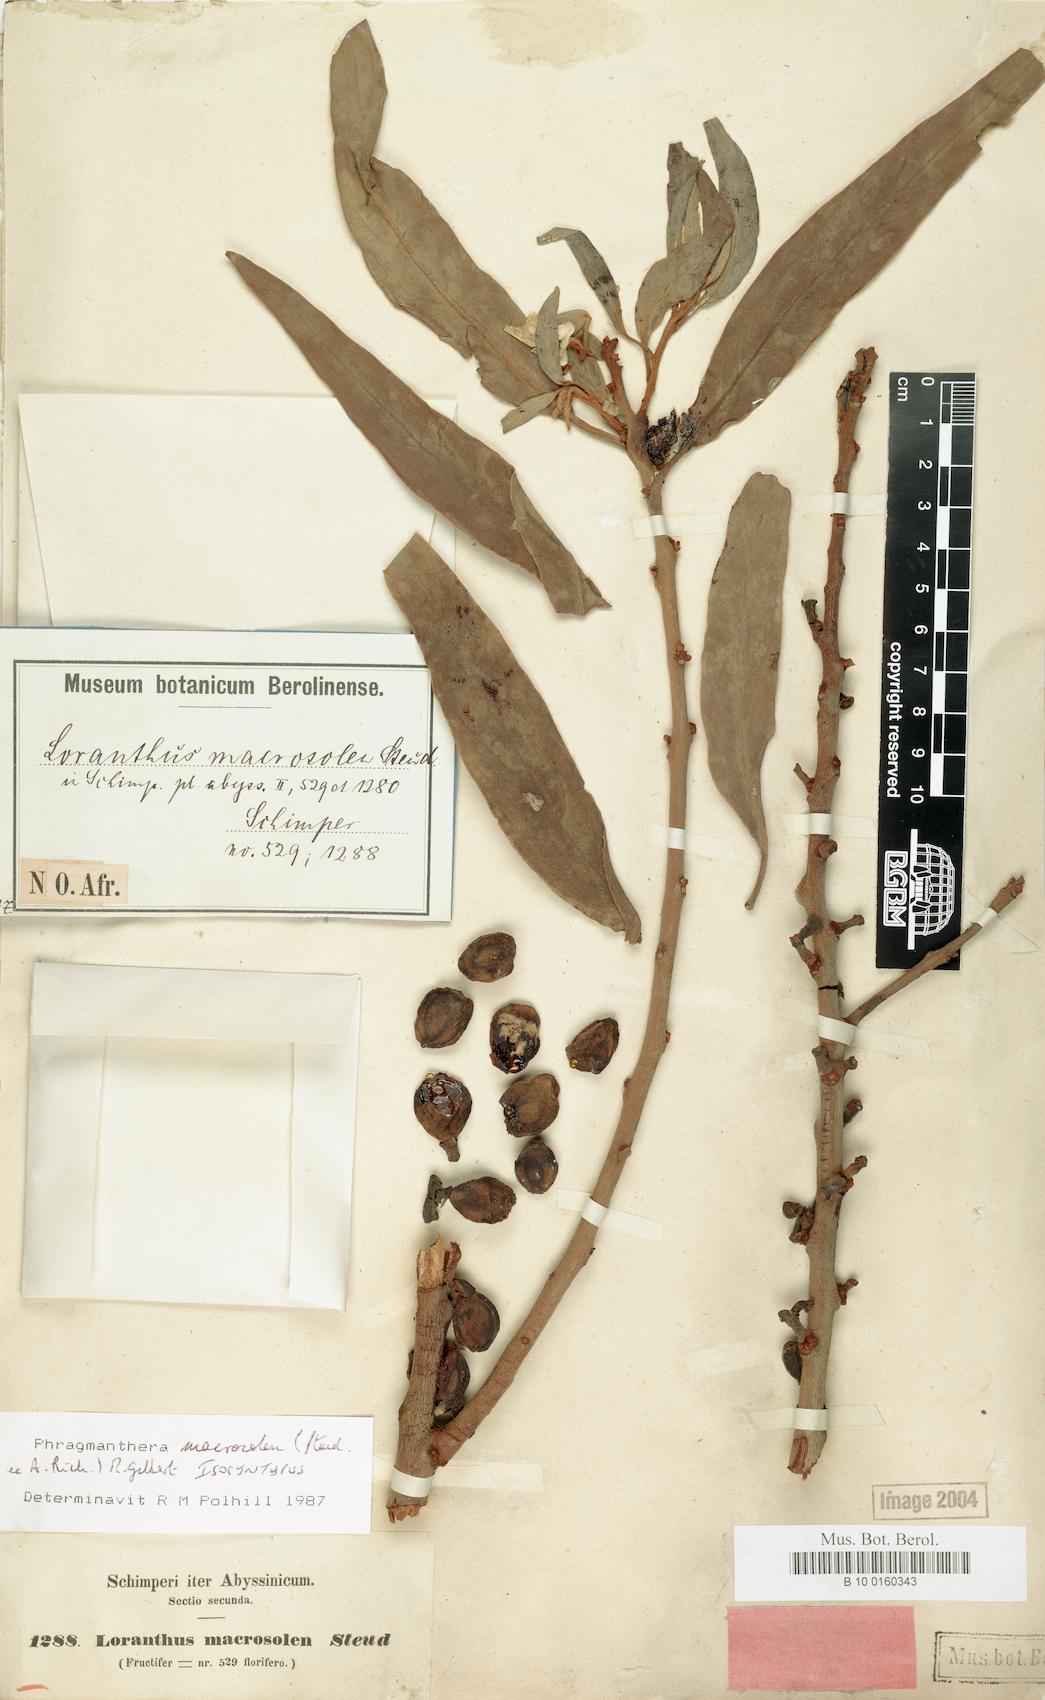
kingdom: Plantae
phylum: Tracheophyta
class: Magnoliopsida
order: Santalales
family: Loranthaceae
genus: Phragmanthera
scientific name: Phragmanthera macrosolen
